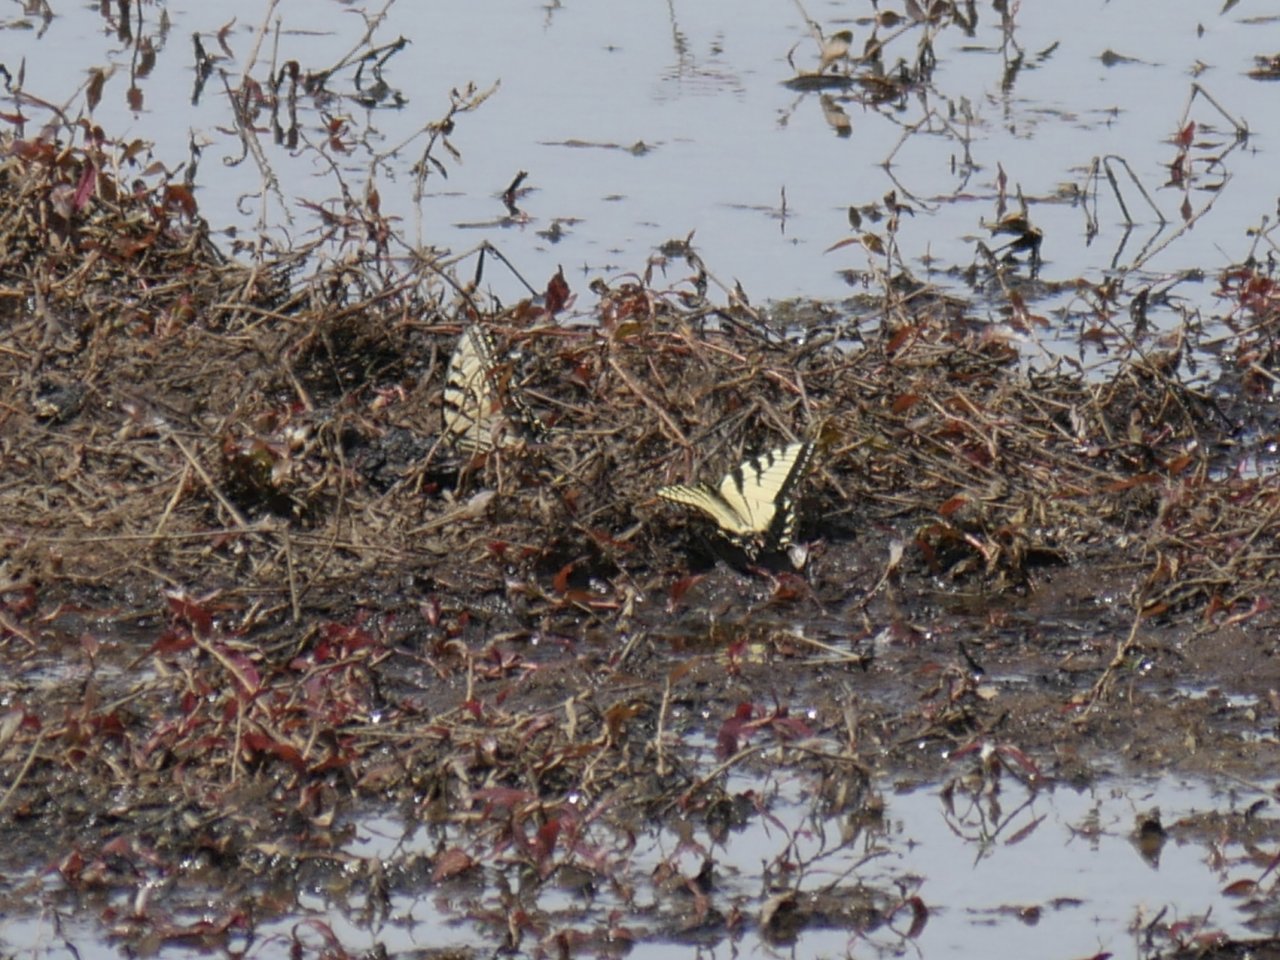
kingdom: Animalia
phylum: Arthropoda
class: Insecta
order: Lepidoptera
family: Papilionidae
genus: Pterourus
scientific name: Pterourus glaucus
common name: Eastern Tiger Swallowtail
